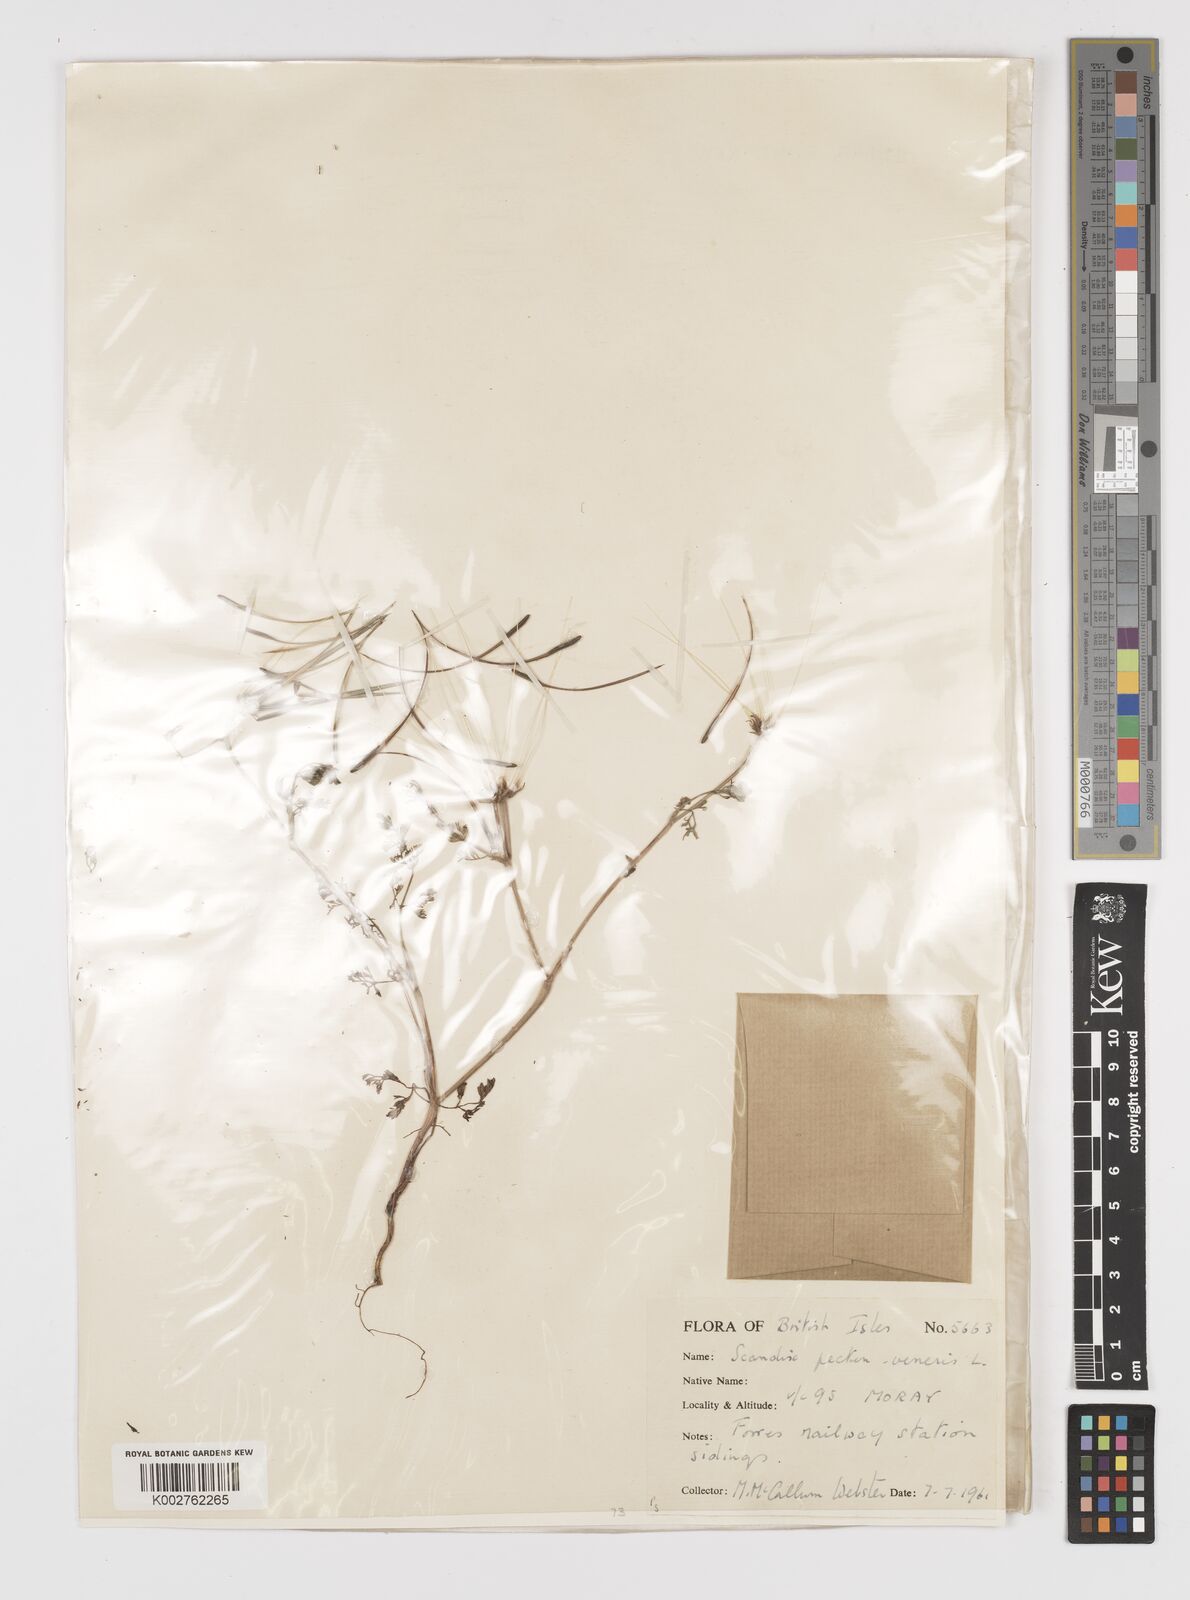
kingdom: Plantae
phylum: Tracheophyta
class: Magnoliopsida
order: Apiales
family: Apiaceae
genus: Scandix
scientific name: Scandix pecten-veneris
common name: Shepherd's-needle
